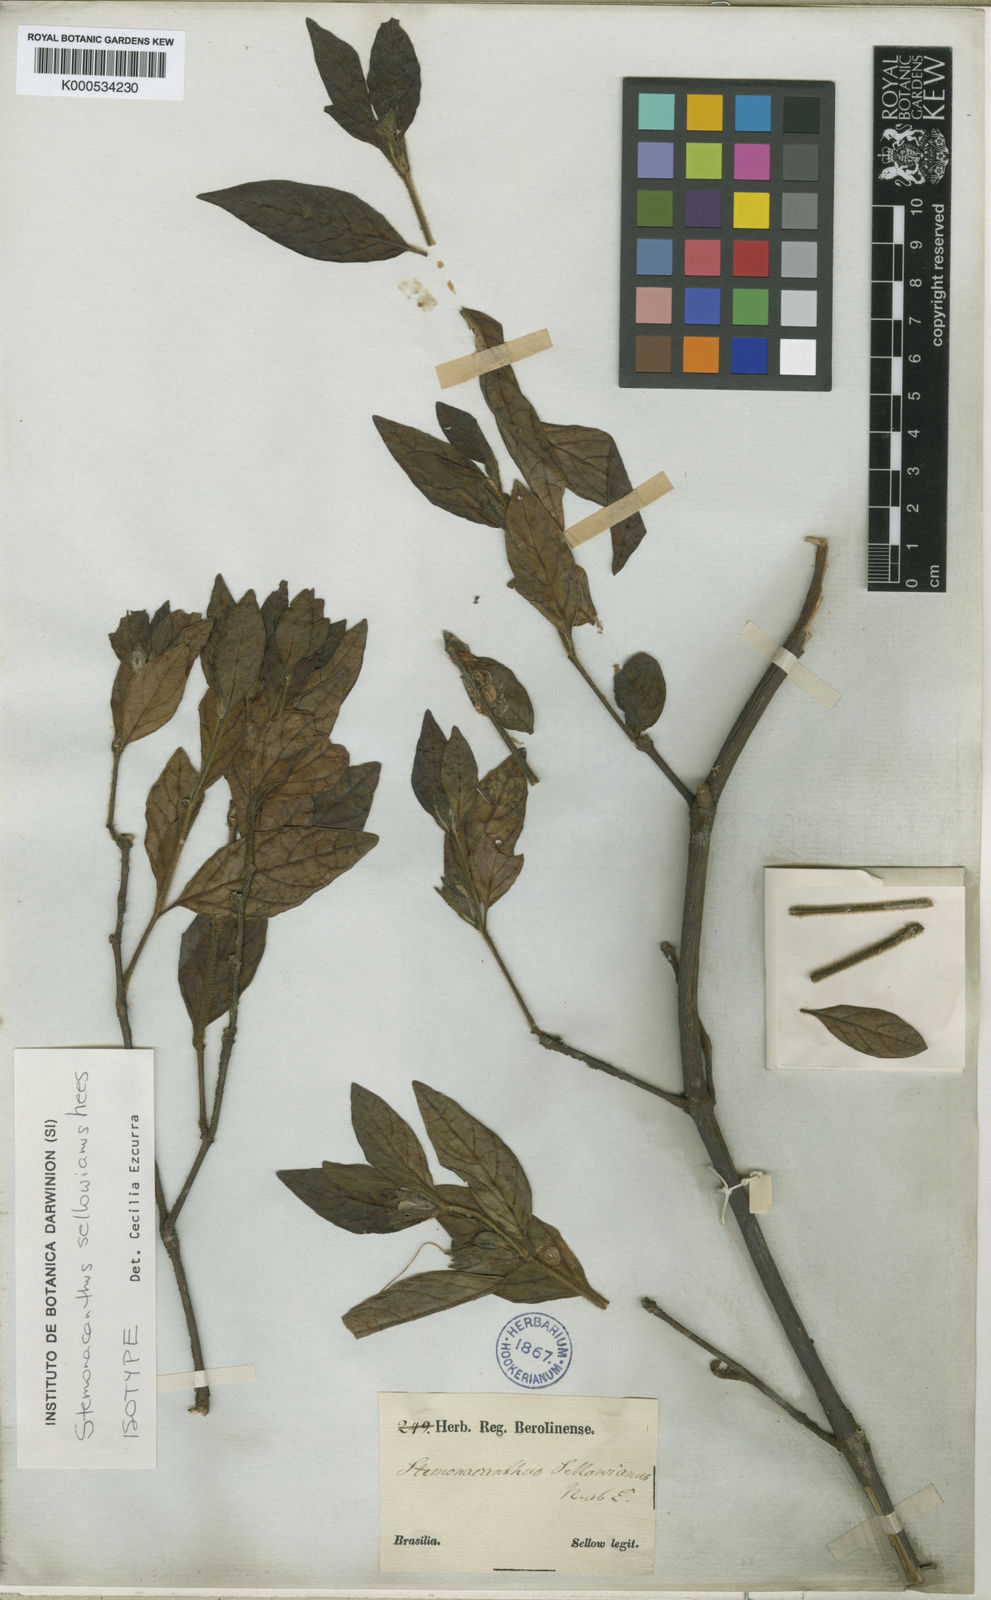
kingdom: Plantae
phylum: Tracheophyta
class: Magnoliopsida
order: Lamiales
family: Acanthaceae
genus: Ruellia
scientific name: Ruellia Stemonacanthus sellowianus
